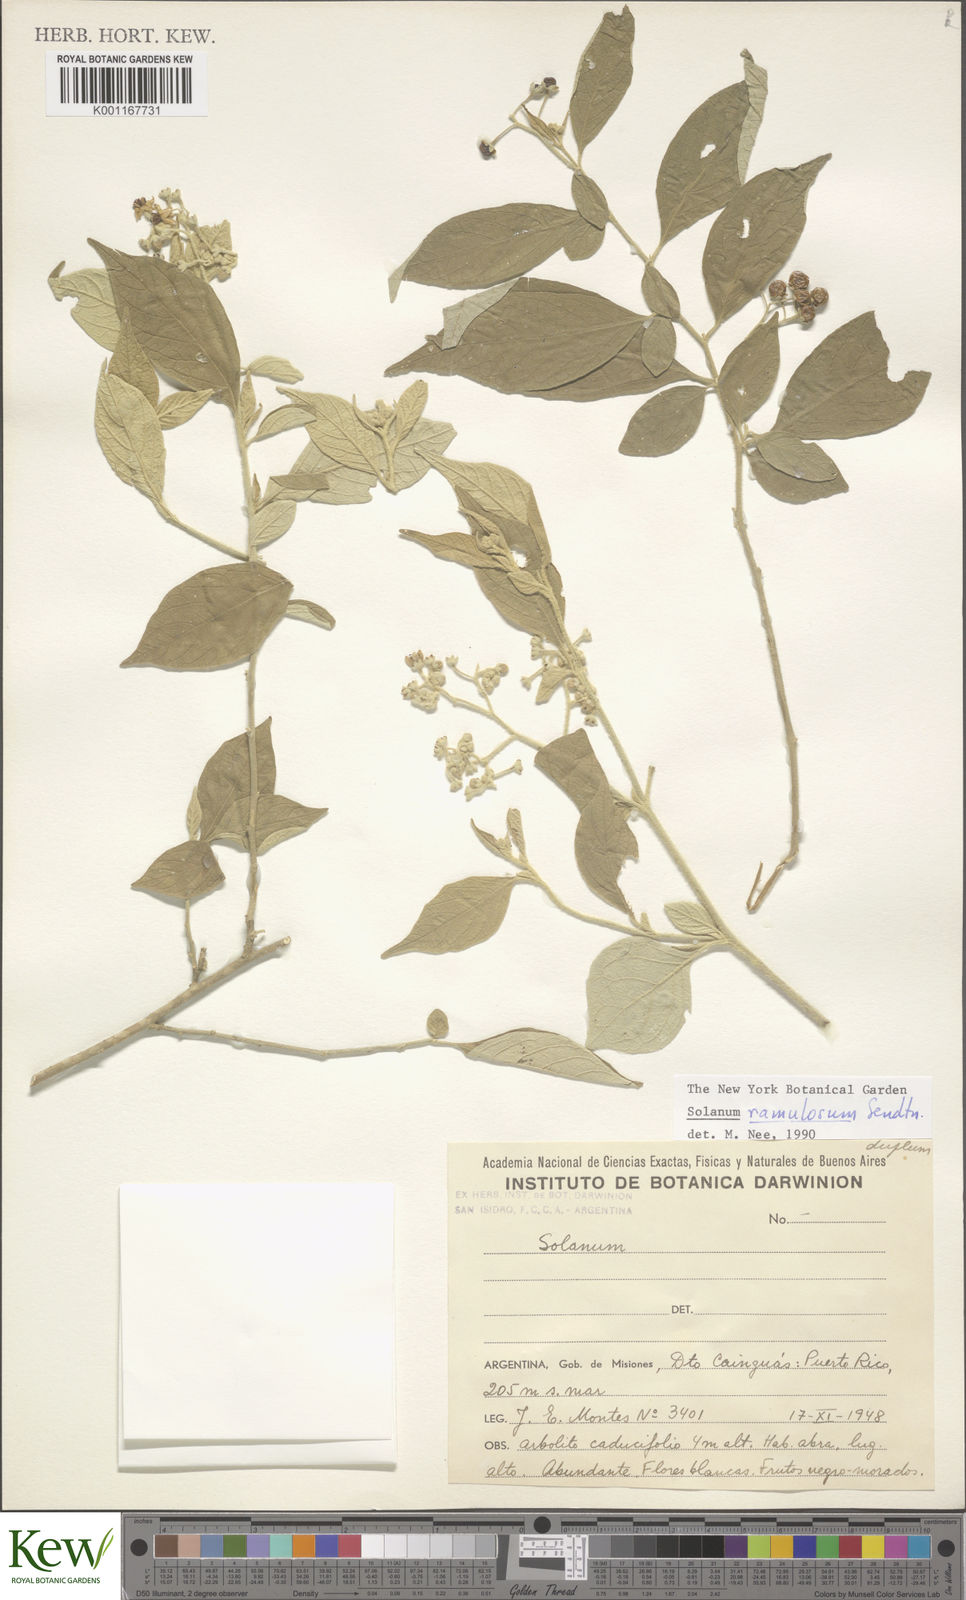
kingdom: Plantae
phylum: Tracheophyta
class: Magnoliopsida
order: Solanales
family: Solanaceae
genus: Solanum
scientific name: Solanum ramulosum
